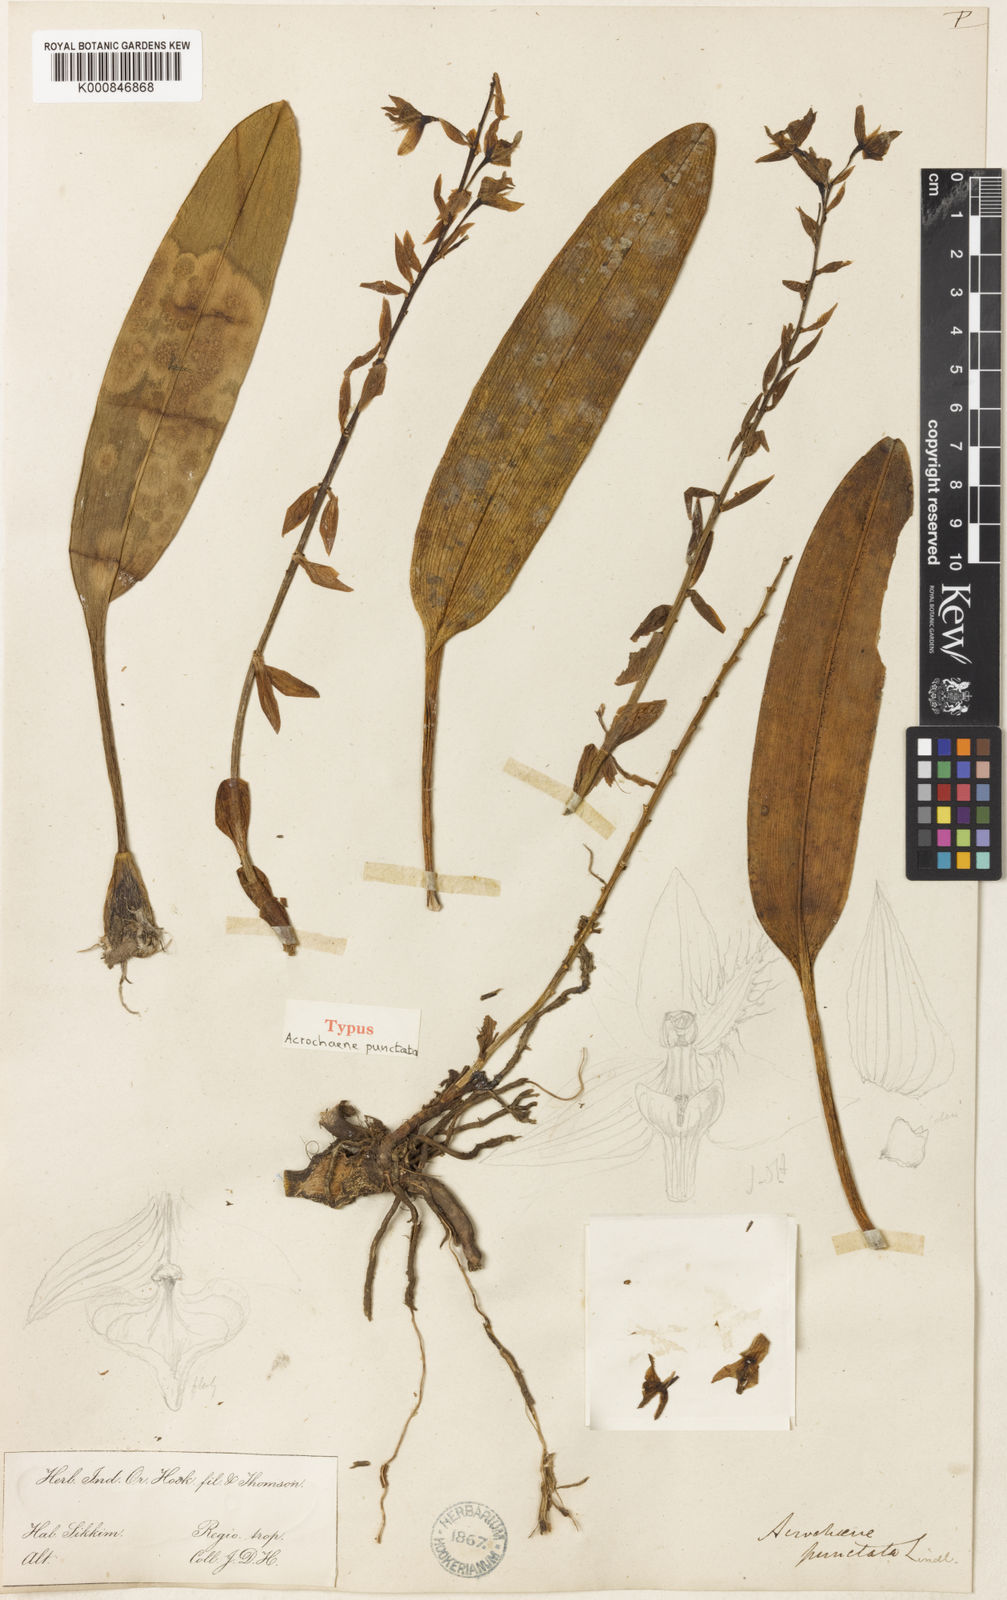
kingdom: Plantae
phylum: Tracheophyta
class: Liliopsida
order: Asparagales
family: Orchidaceae
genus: Bulbophyllum
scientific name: Bulbophyllum kingii
